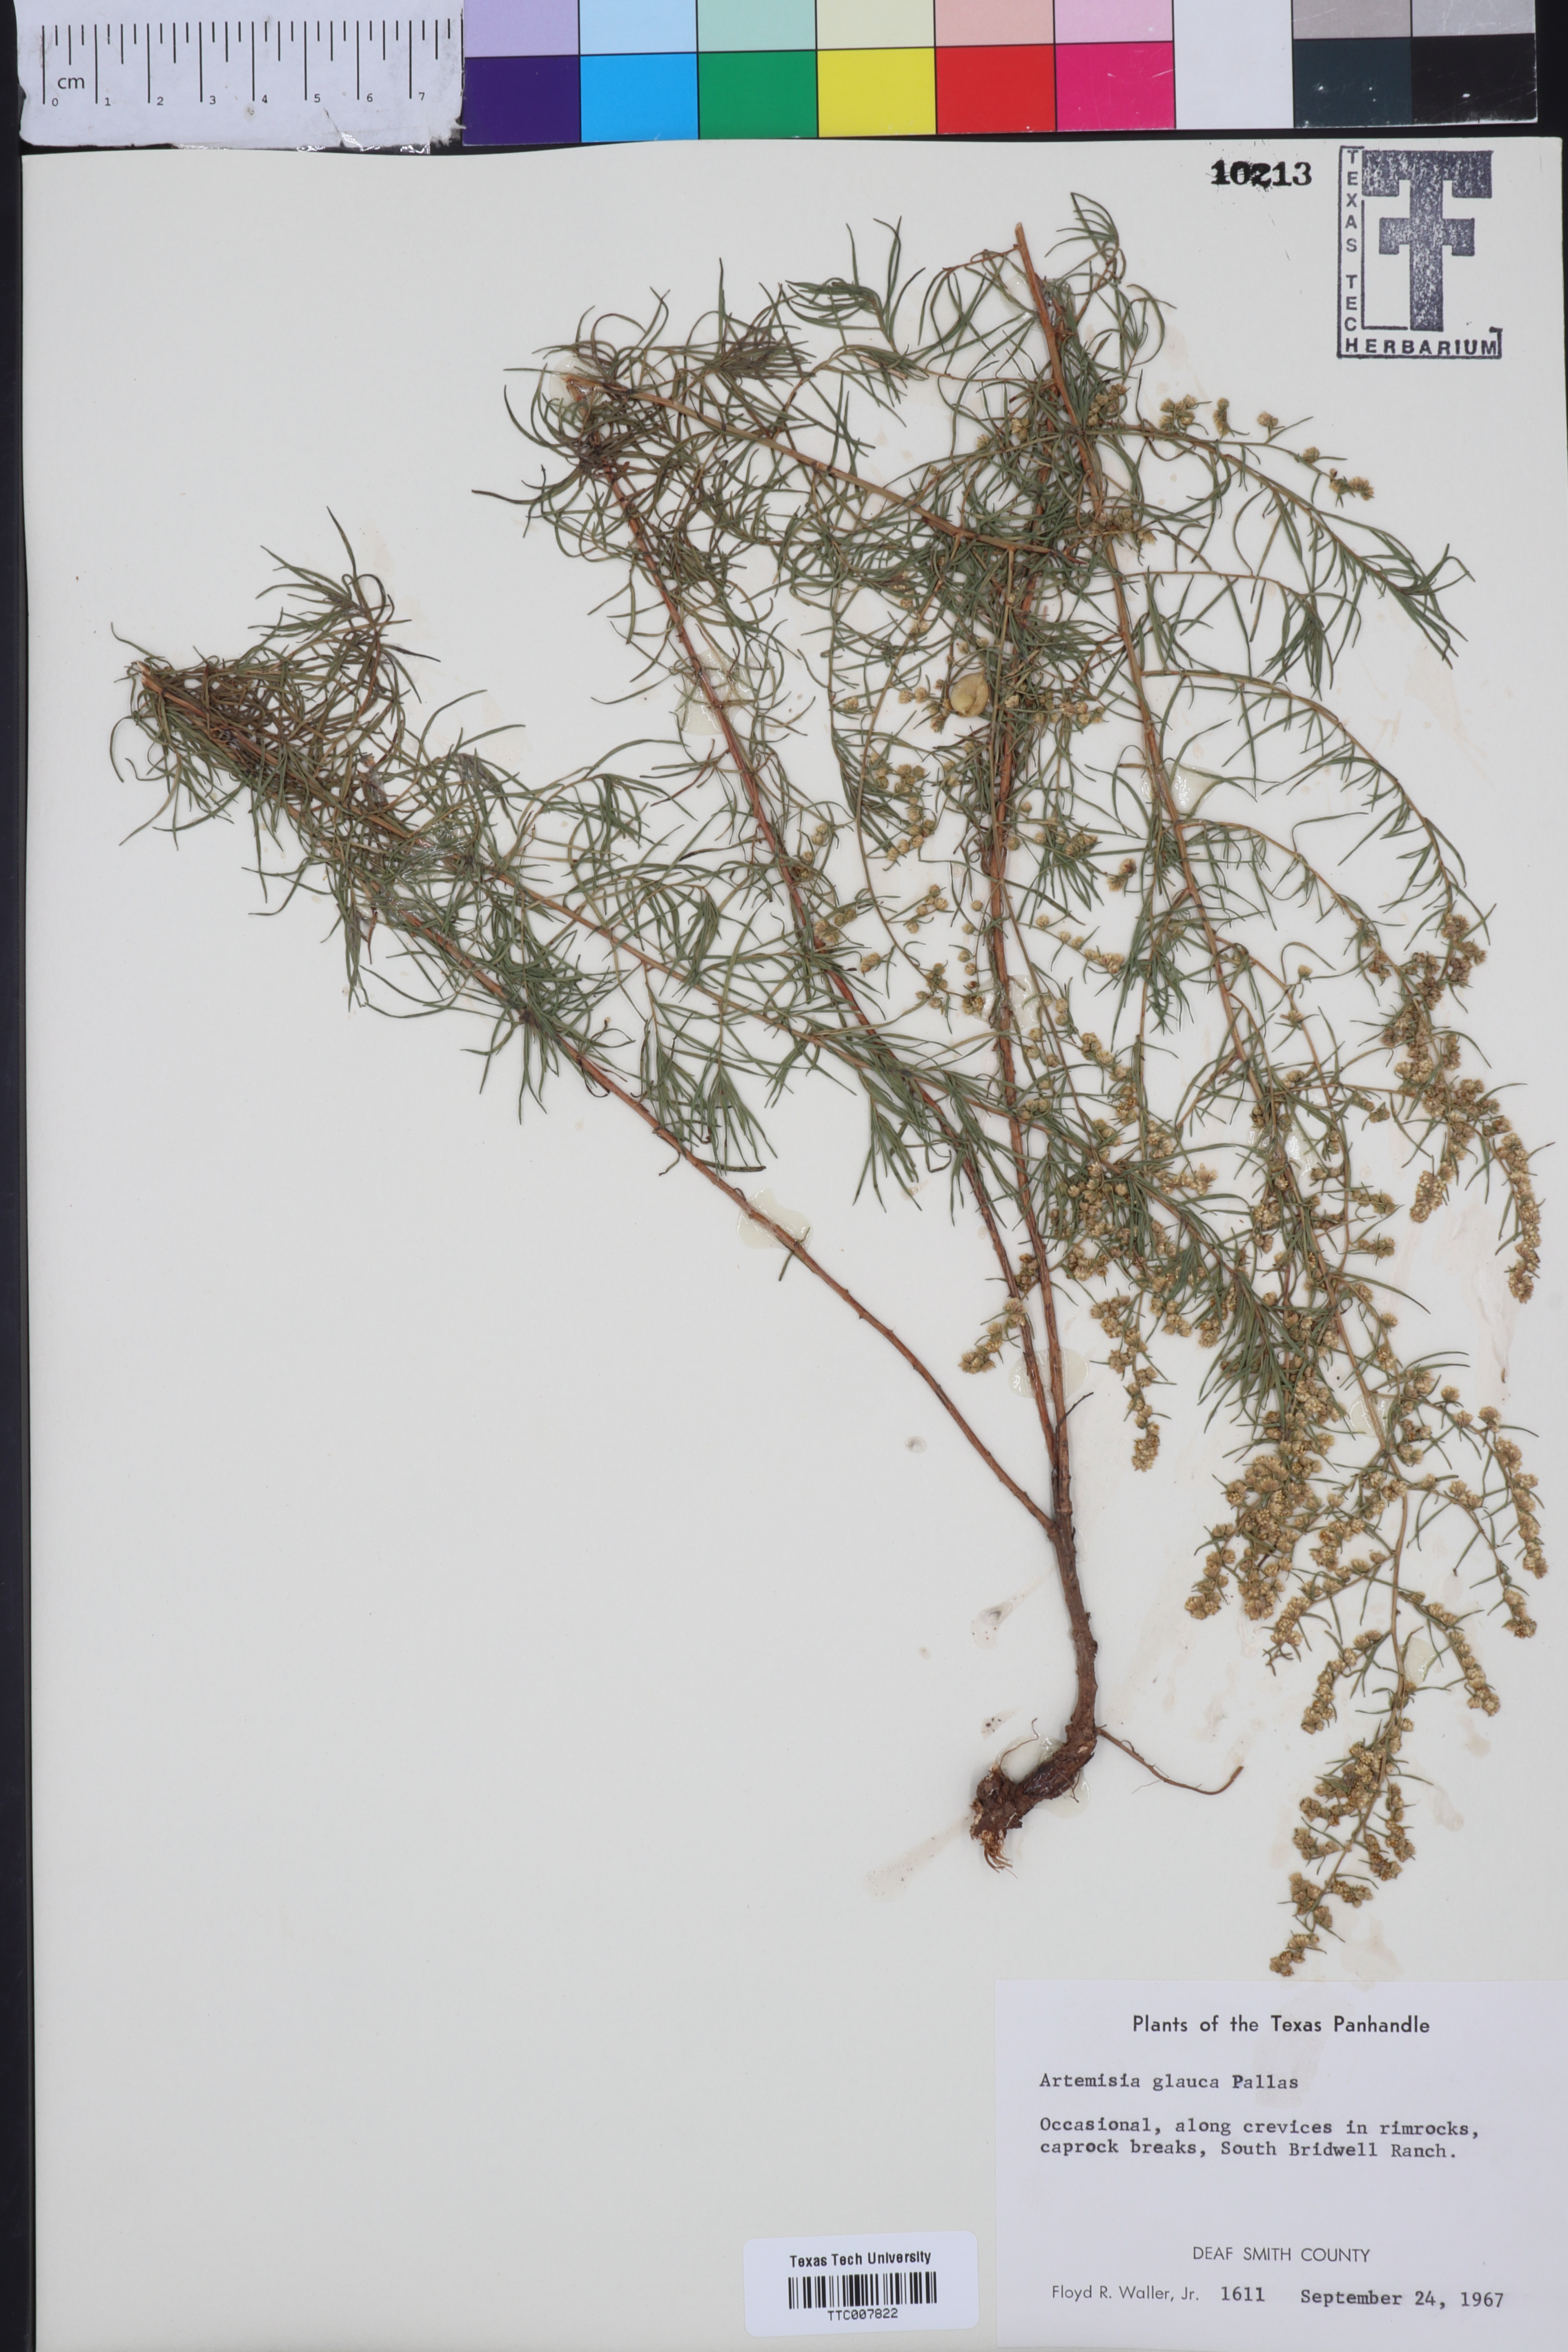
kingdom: Plantae
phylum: Tracheophyta
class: Magnoliopsida
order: Asterales
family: Asteraceae
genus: Artemisia
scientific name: Artemisia glauca
